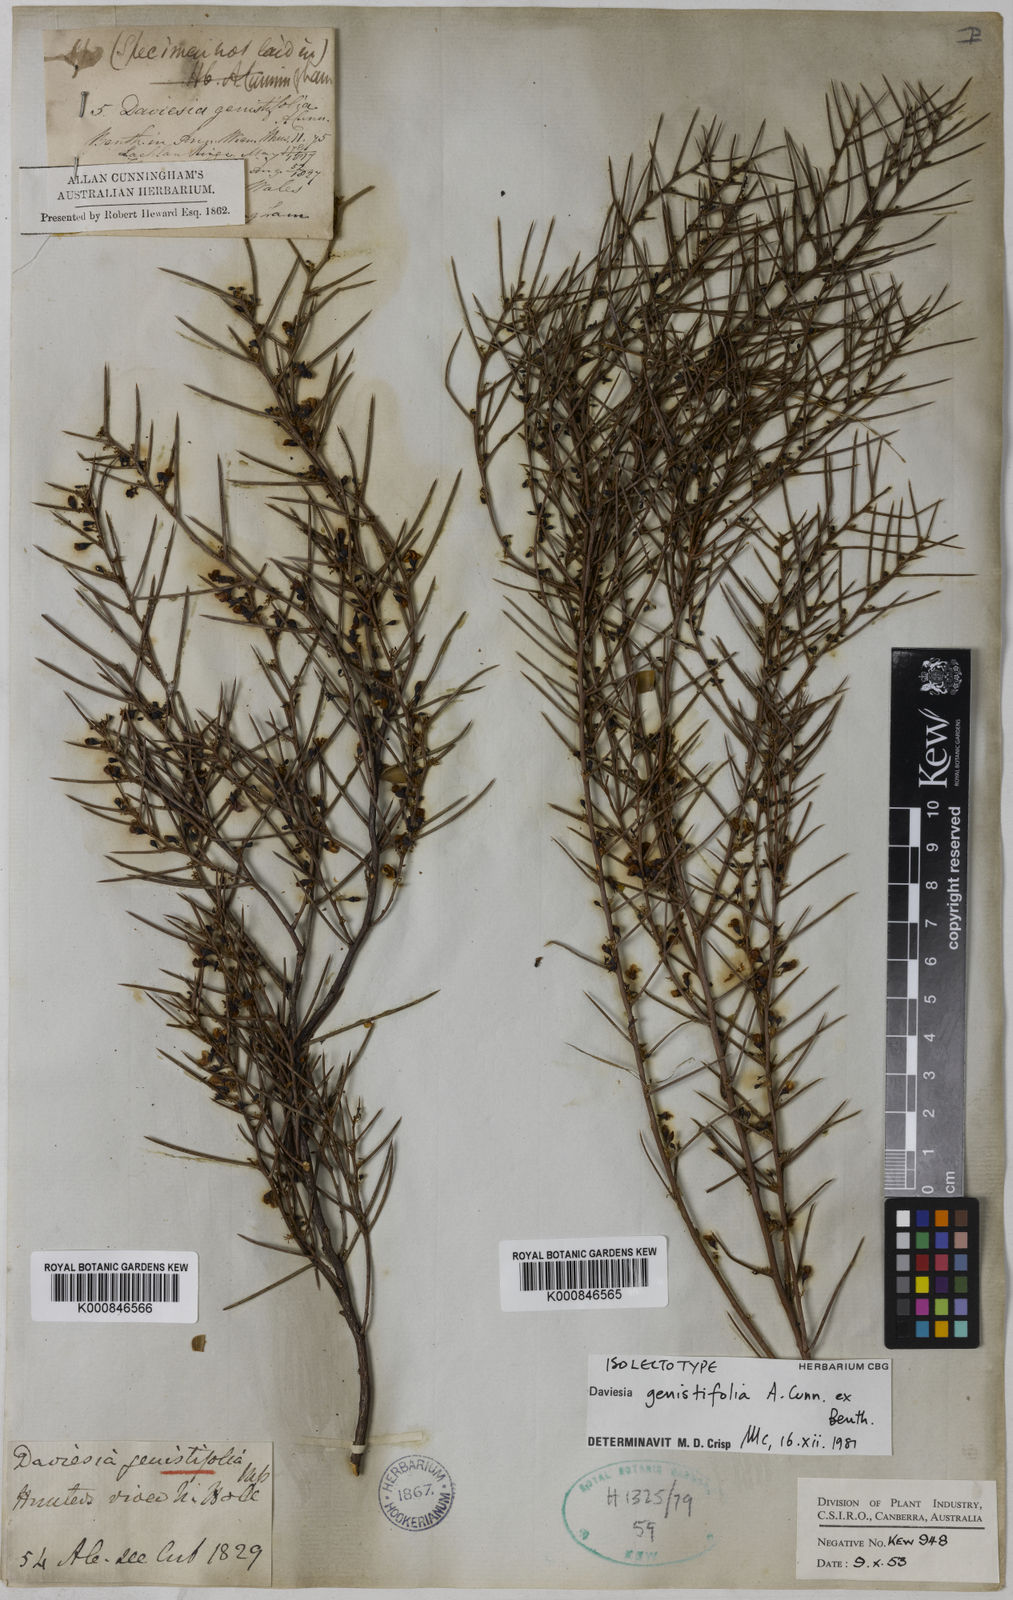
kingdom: Plantae
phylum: Tracheophyta
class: Magnoliopsida
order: Fabales
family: Fabaceae
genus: Daviesia
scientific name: Daviesia genistifolia
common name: Broom bitter-pea
